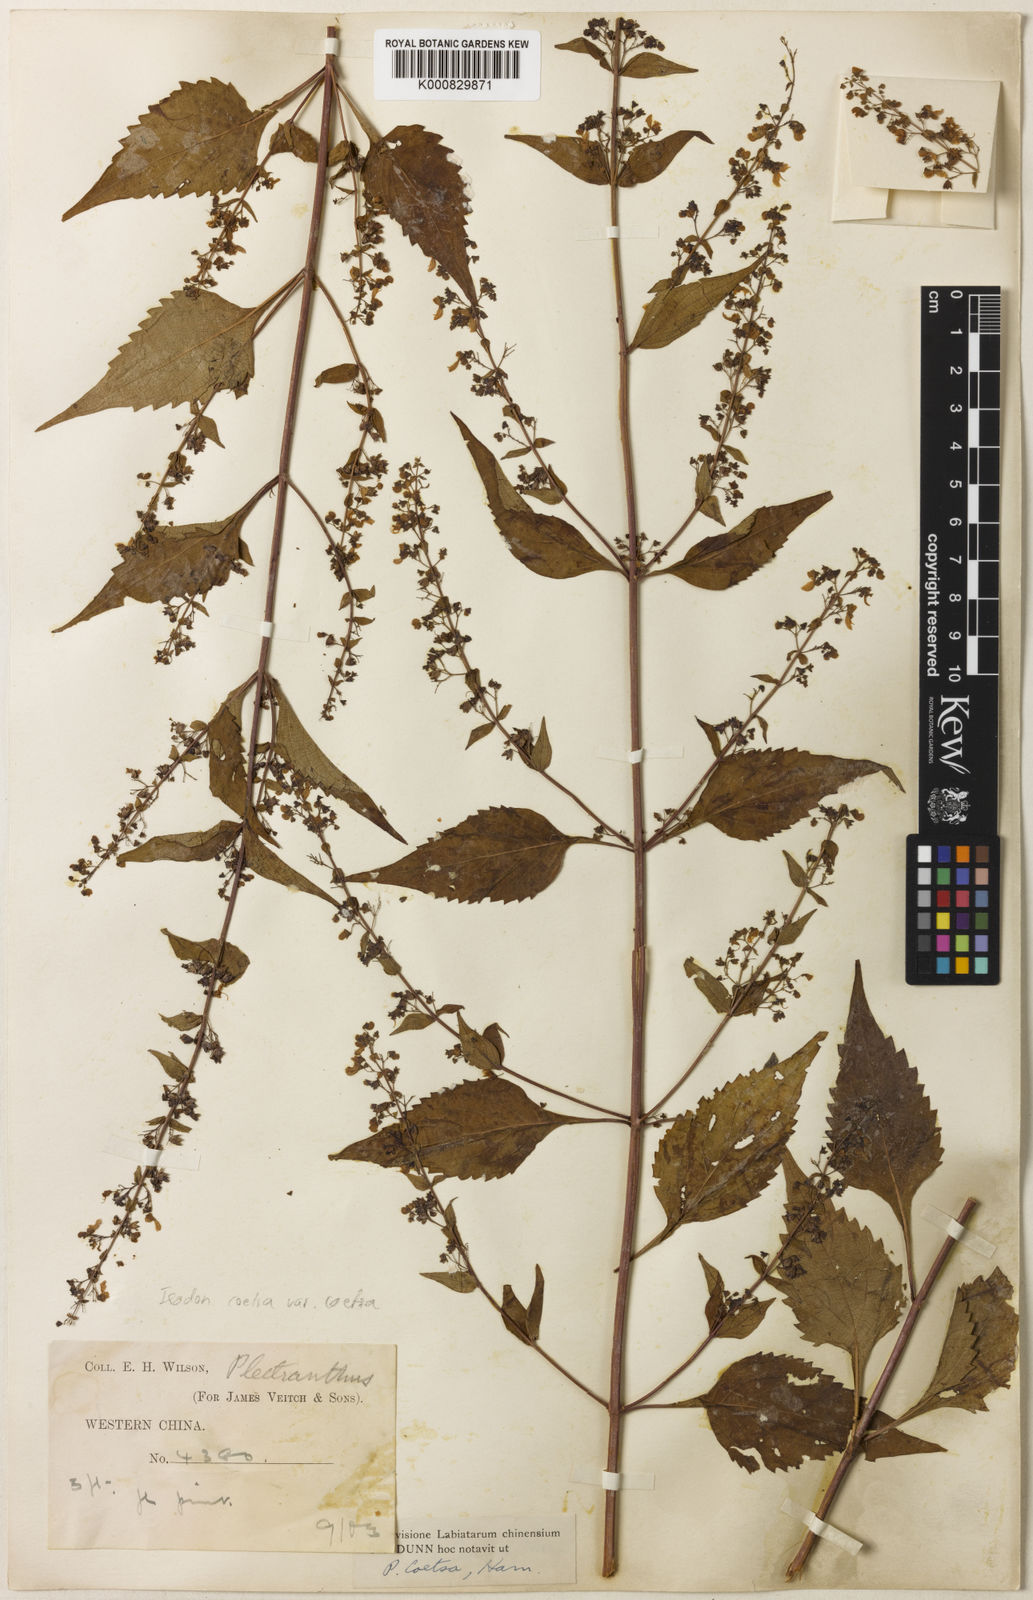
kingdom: Plantae
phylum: Tracheophyta
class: Magnoliopsida
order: Lamiales
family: Lamiaceae
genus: Isodon
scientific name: Isodon
